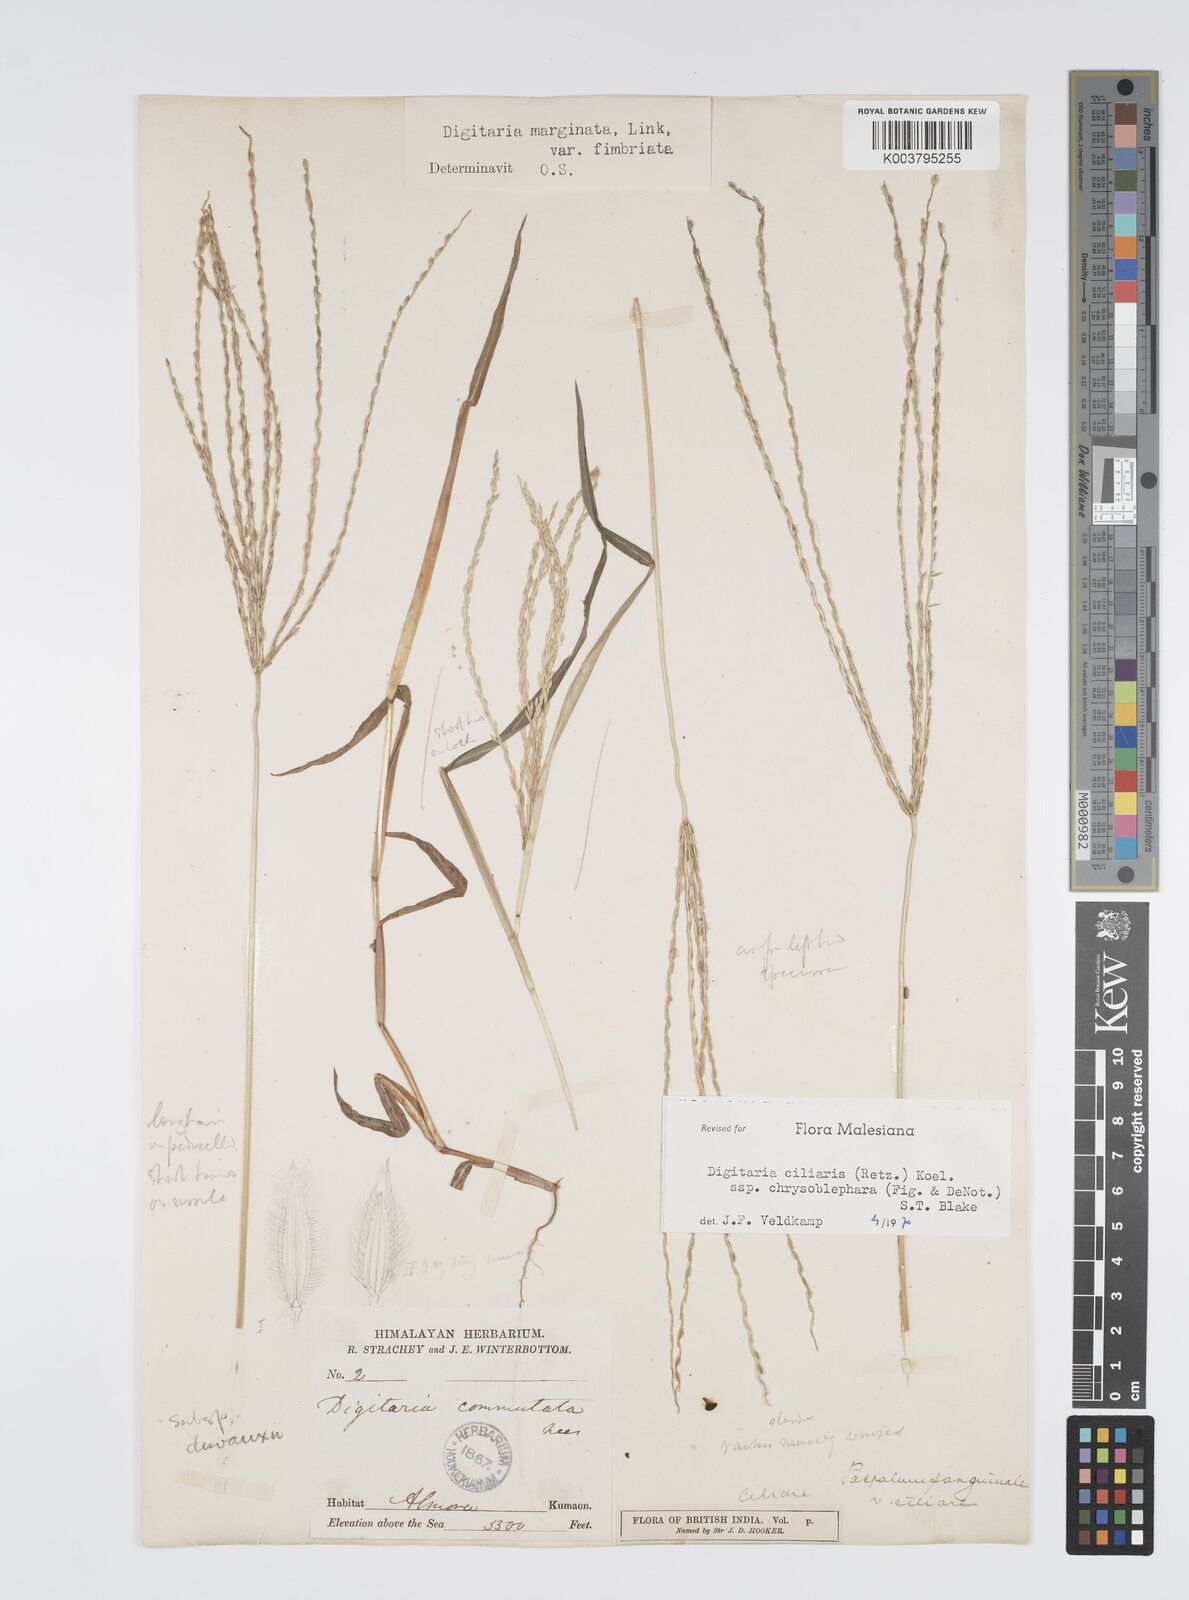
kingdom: Plantae
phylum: Tracheophyta
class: Liliopsida
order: Poales
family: Poaceae
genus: Digitaria
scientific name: Digitaria ciliaris
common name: Tropical finger-grass
